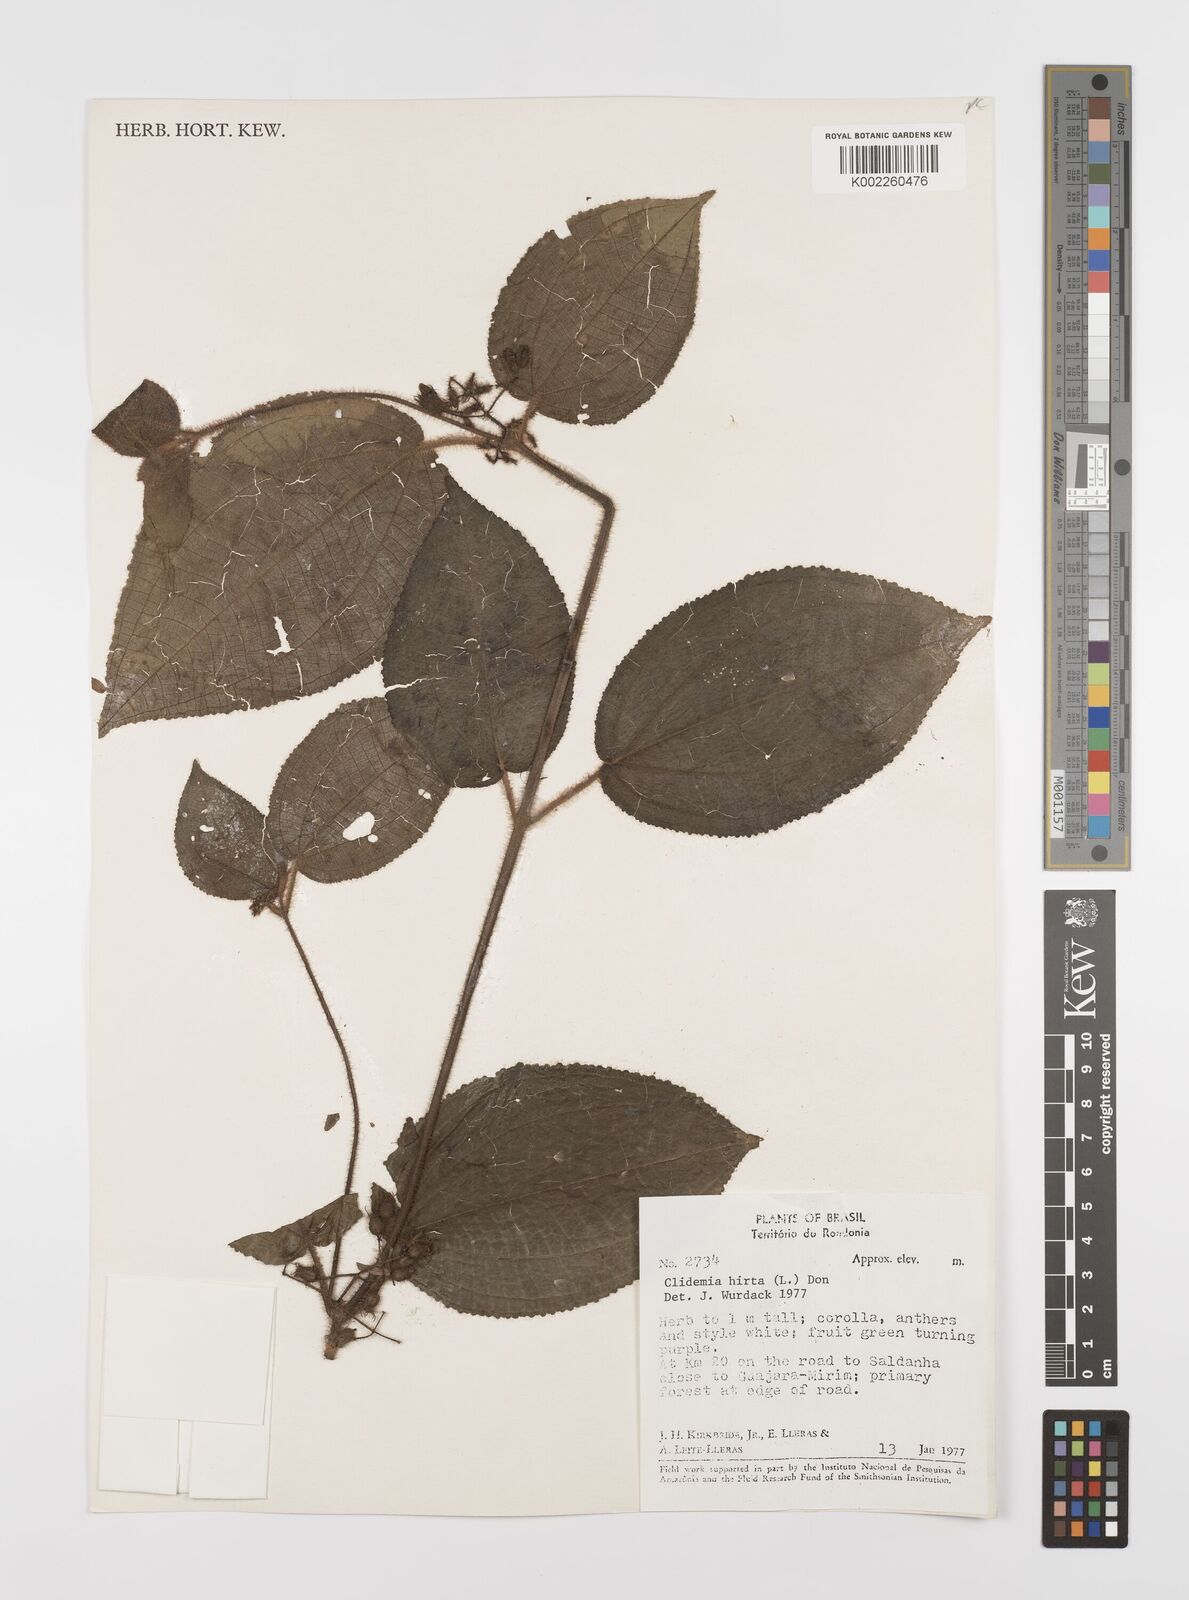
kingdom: Plantae
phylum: Tracheophyta
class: Magnoliopsida
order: Myrtales
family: Melastomataceae
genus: Miconia
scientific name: Miconia crenata
